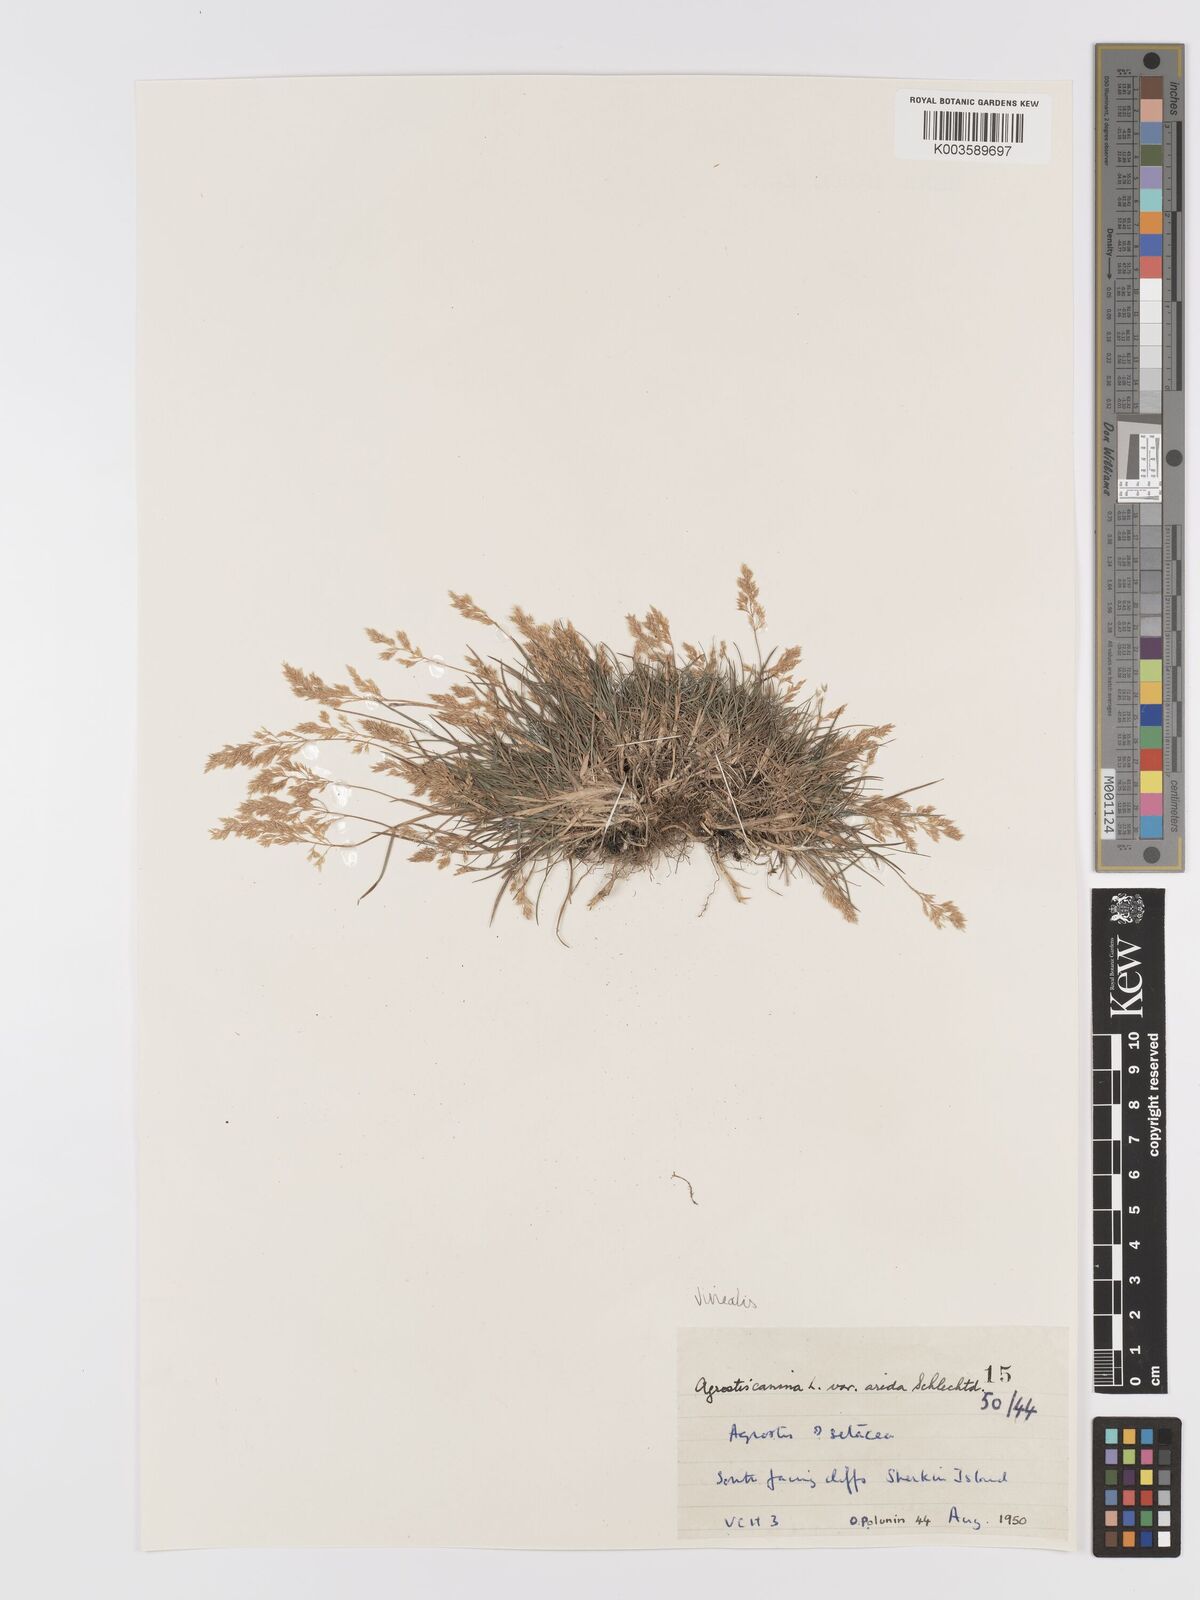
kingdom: Plantae
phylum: Tracheophyta
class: Liliopsida
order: Poales
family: Poaceae
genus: Agrostis
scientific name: Agrostis
